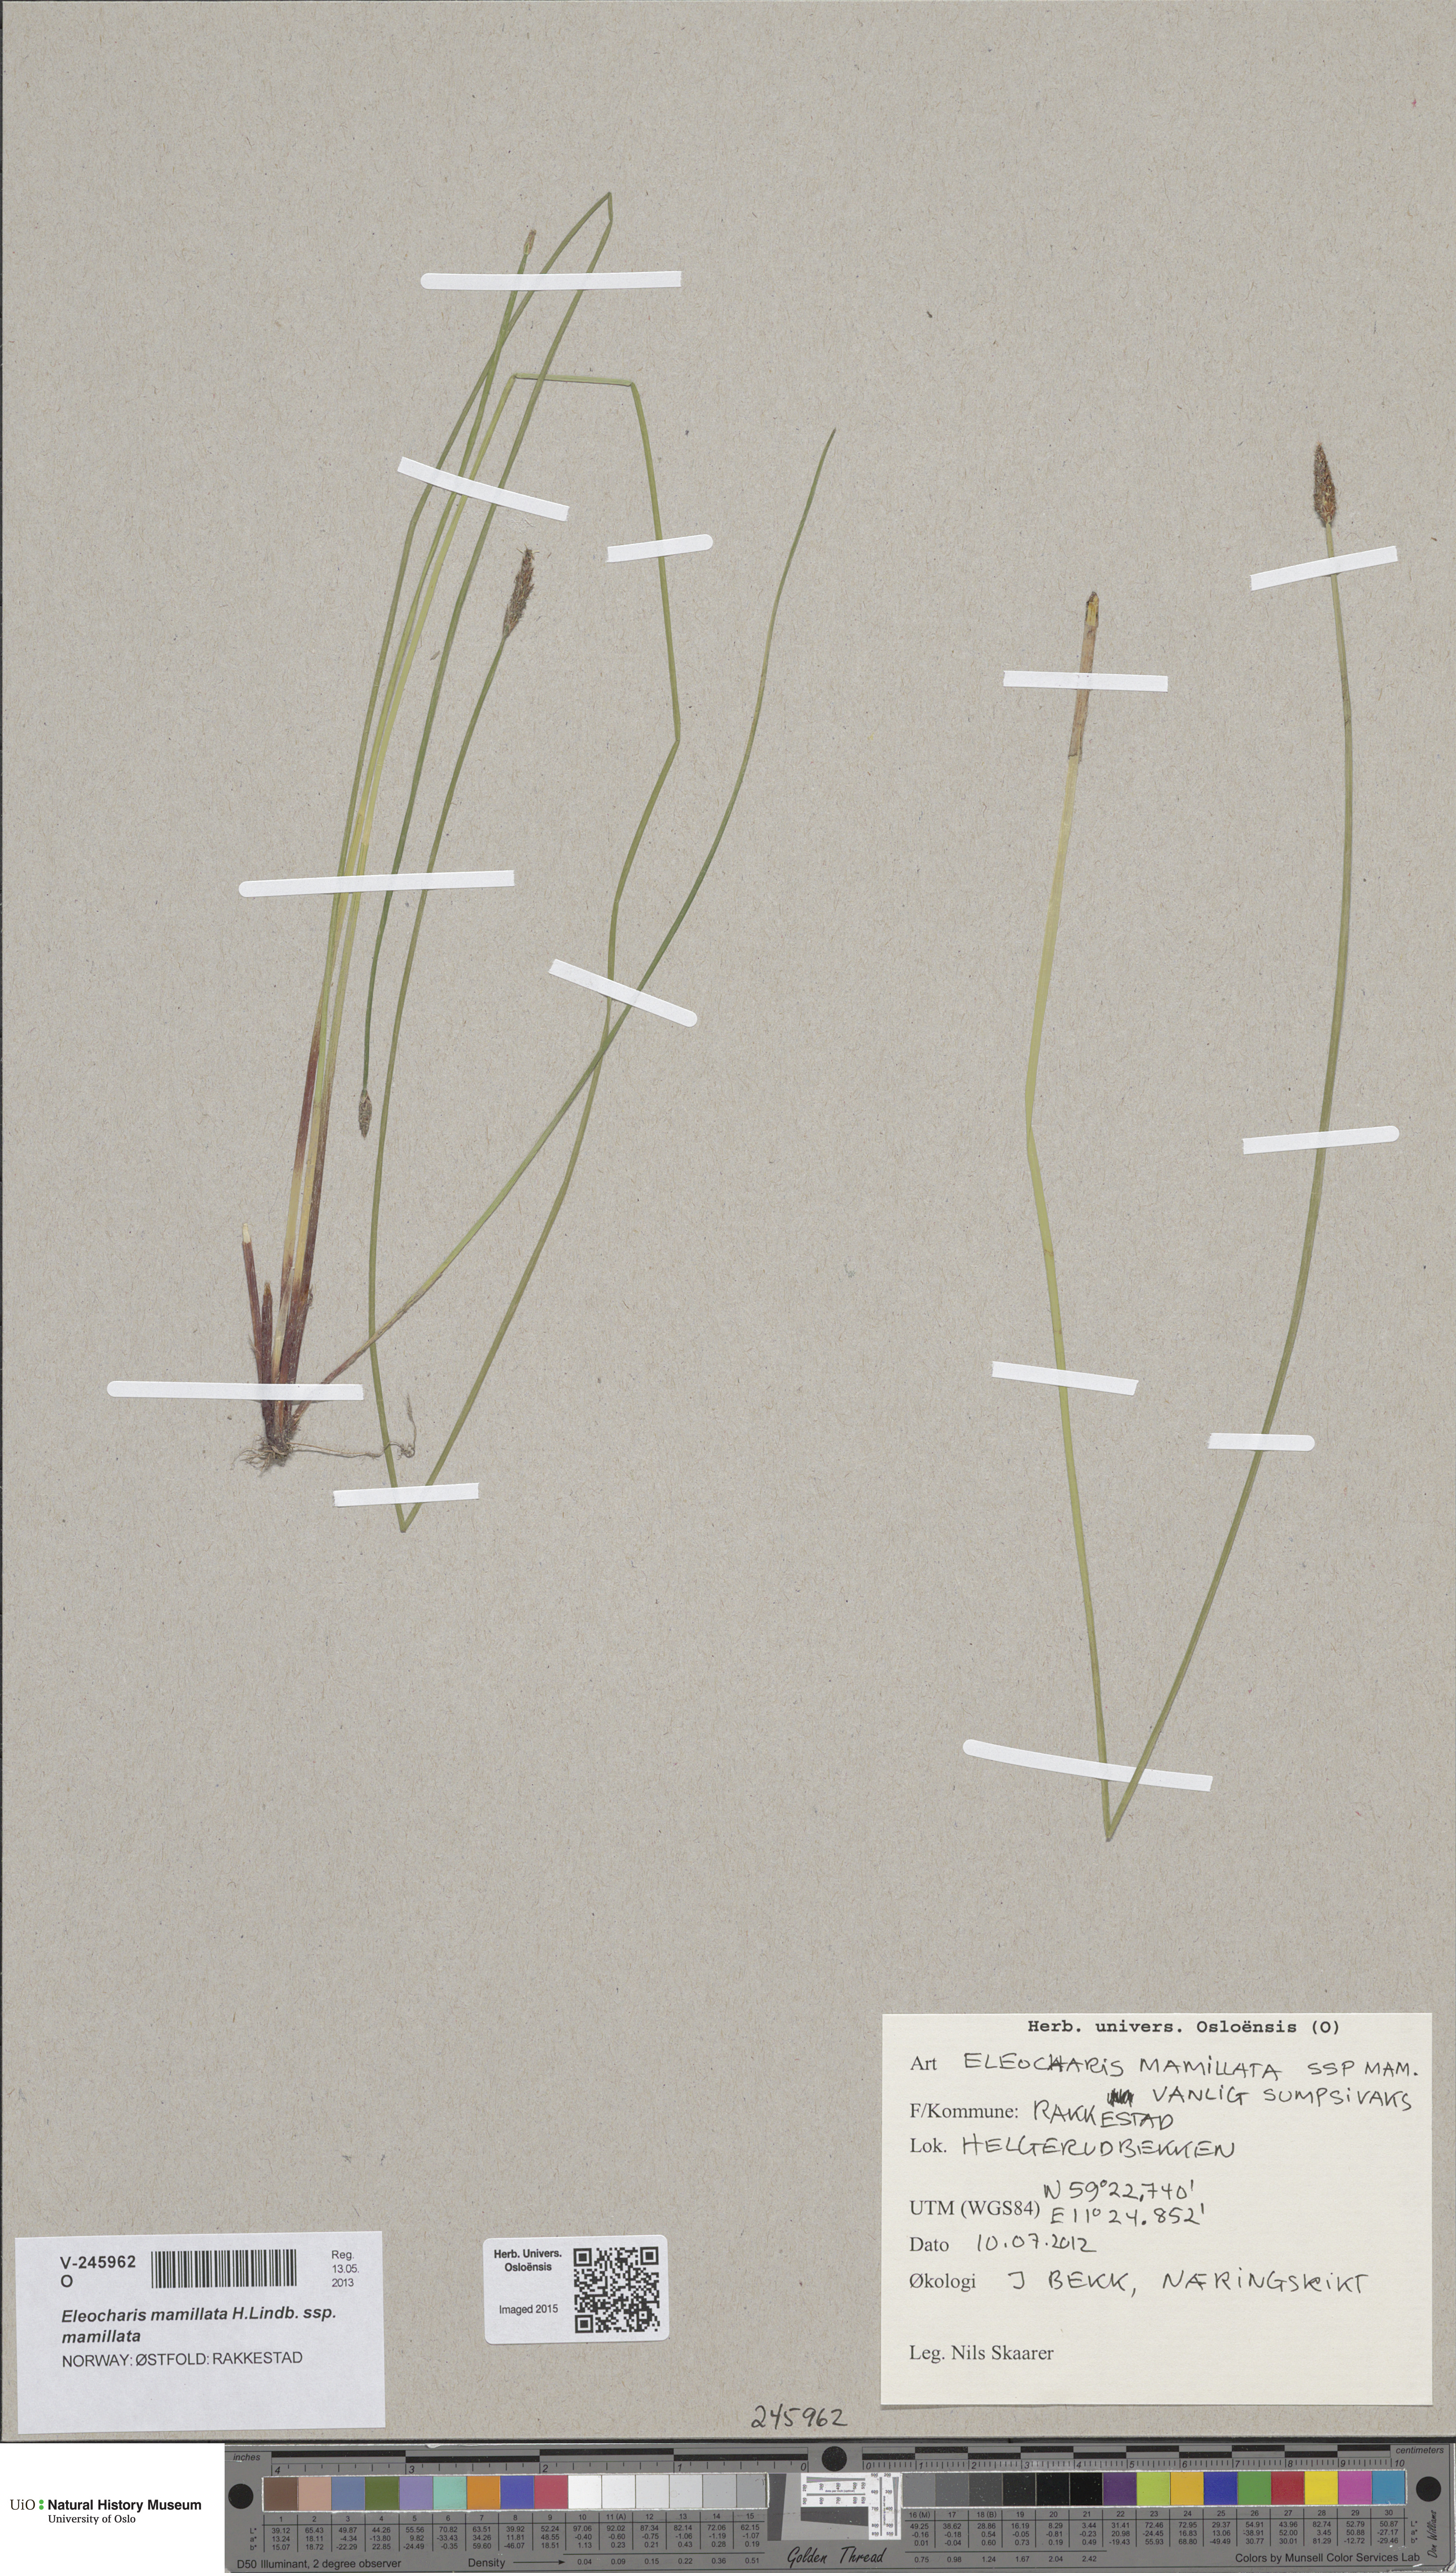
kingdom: Plantae
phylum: Tracheophyta
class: Liliopsida
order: Poales
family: Cyperaceae
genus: Eleocharis
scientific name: Eleocharis mamillata
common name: Northern spike-rush
